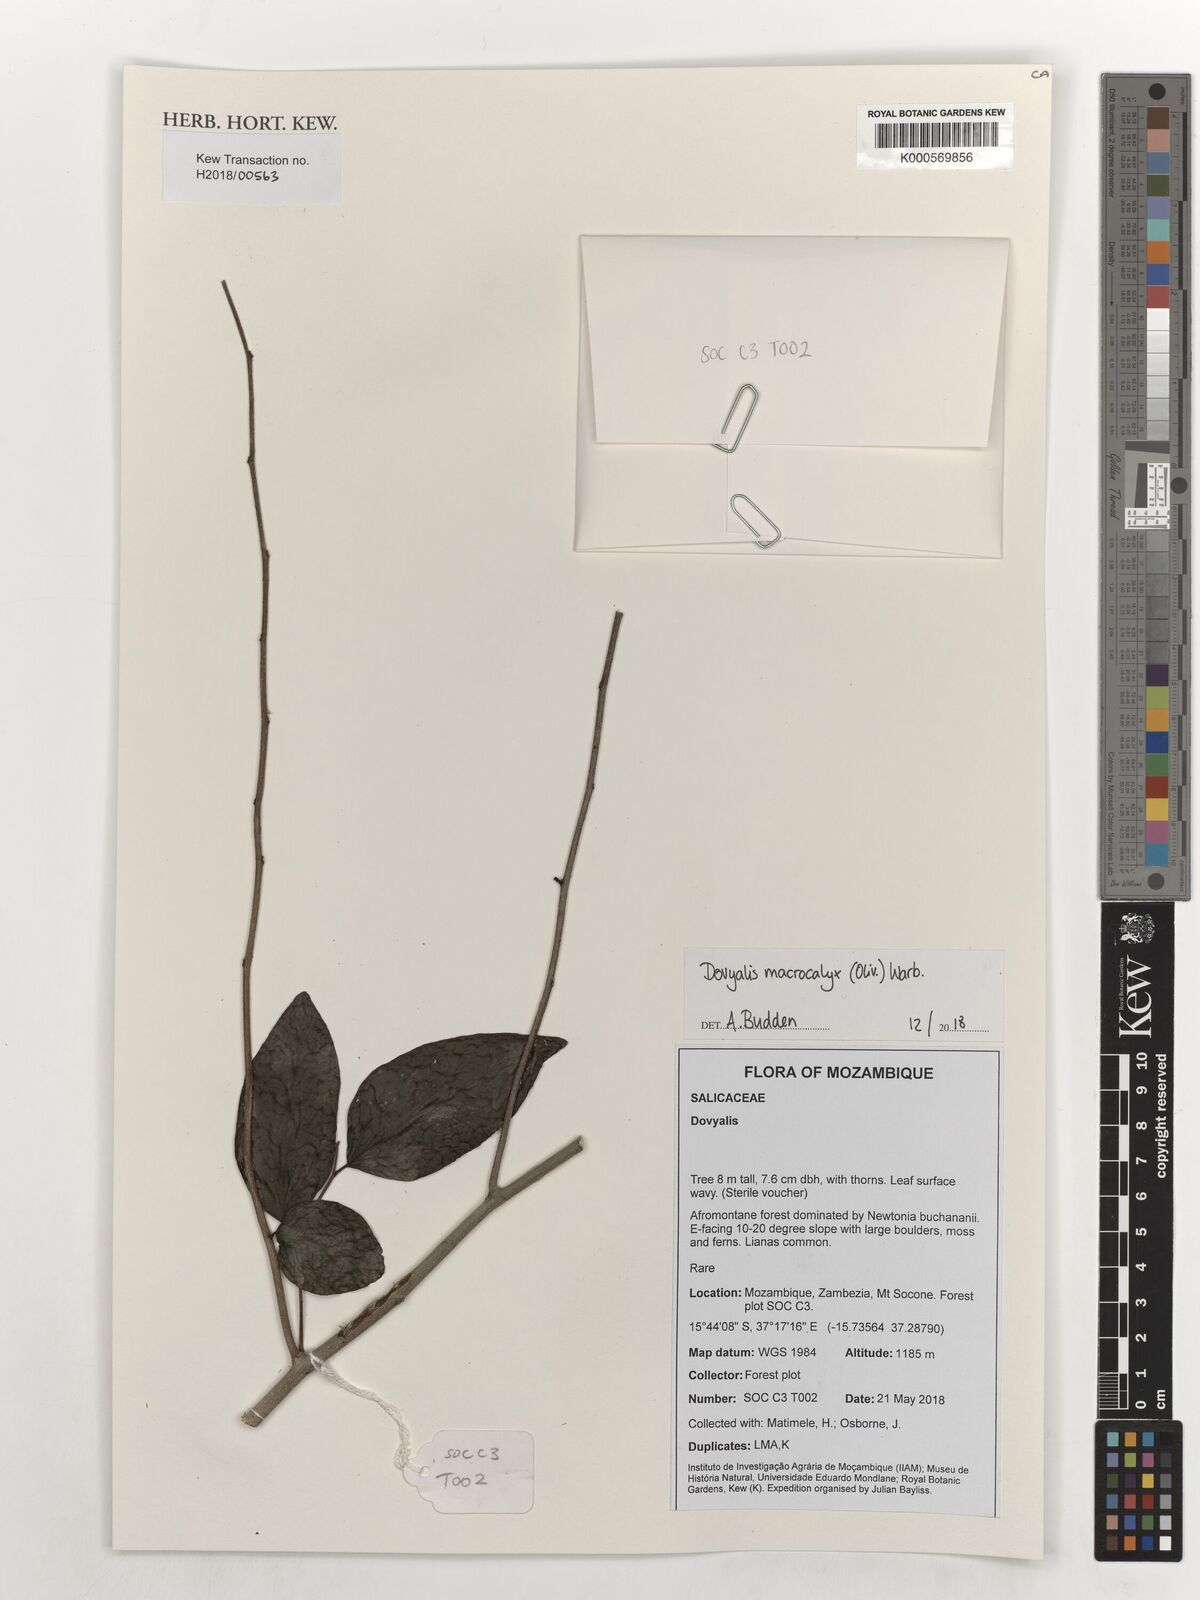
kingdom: Plantae
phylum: Tracheophyta
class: Magnoliopsida
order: Malpighiales
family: Salicaceae
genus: Dovyalis
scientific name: Dovyalis macrocalyx
